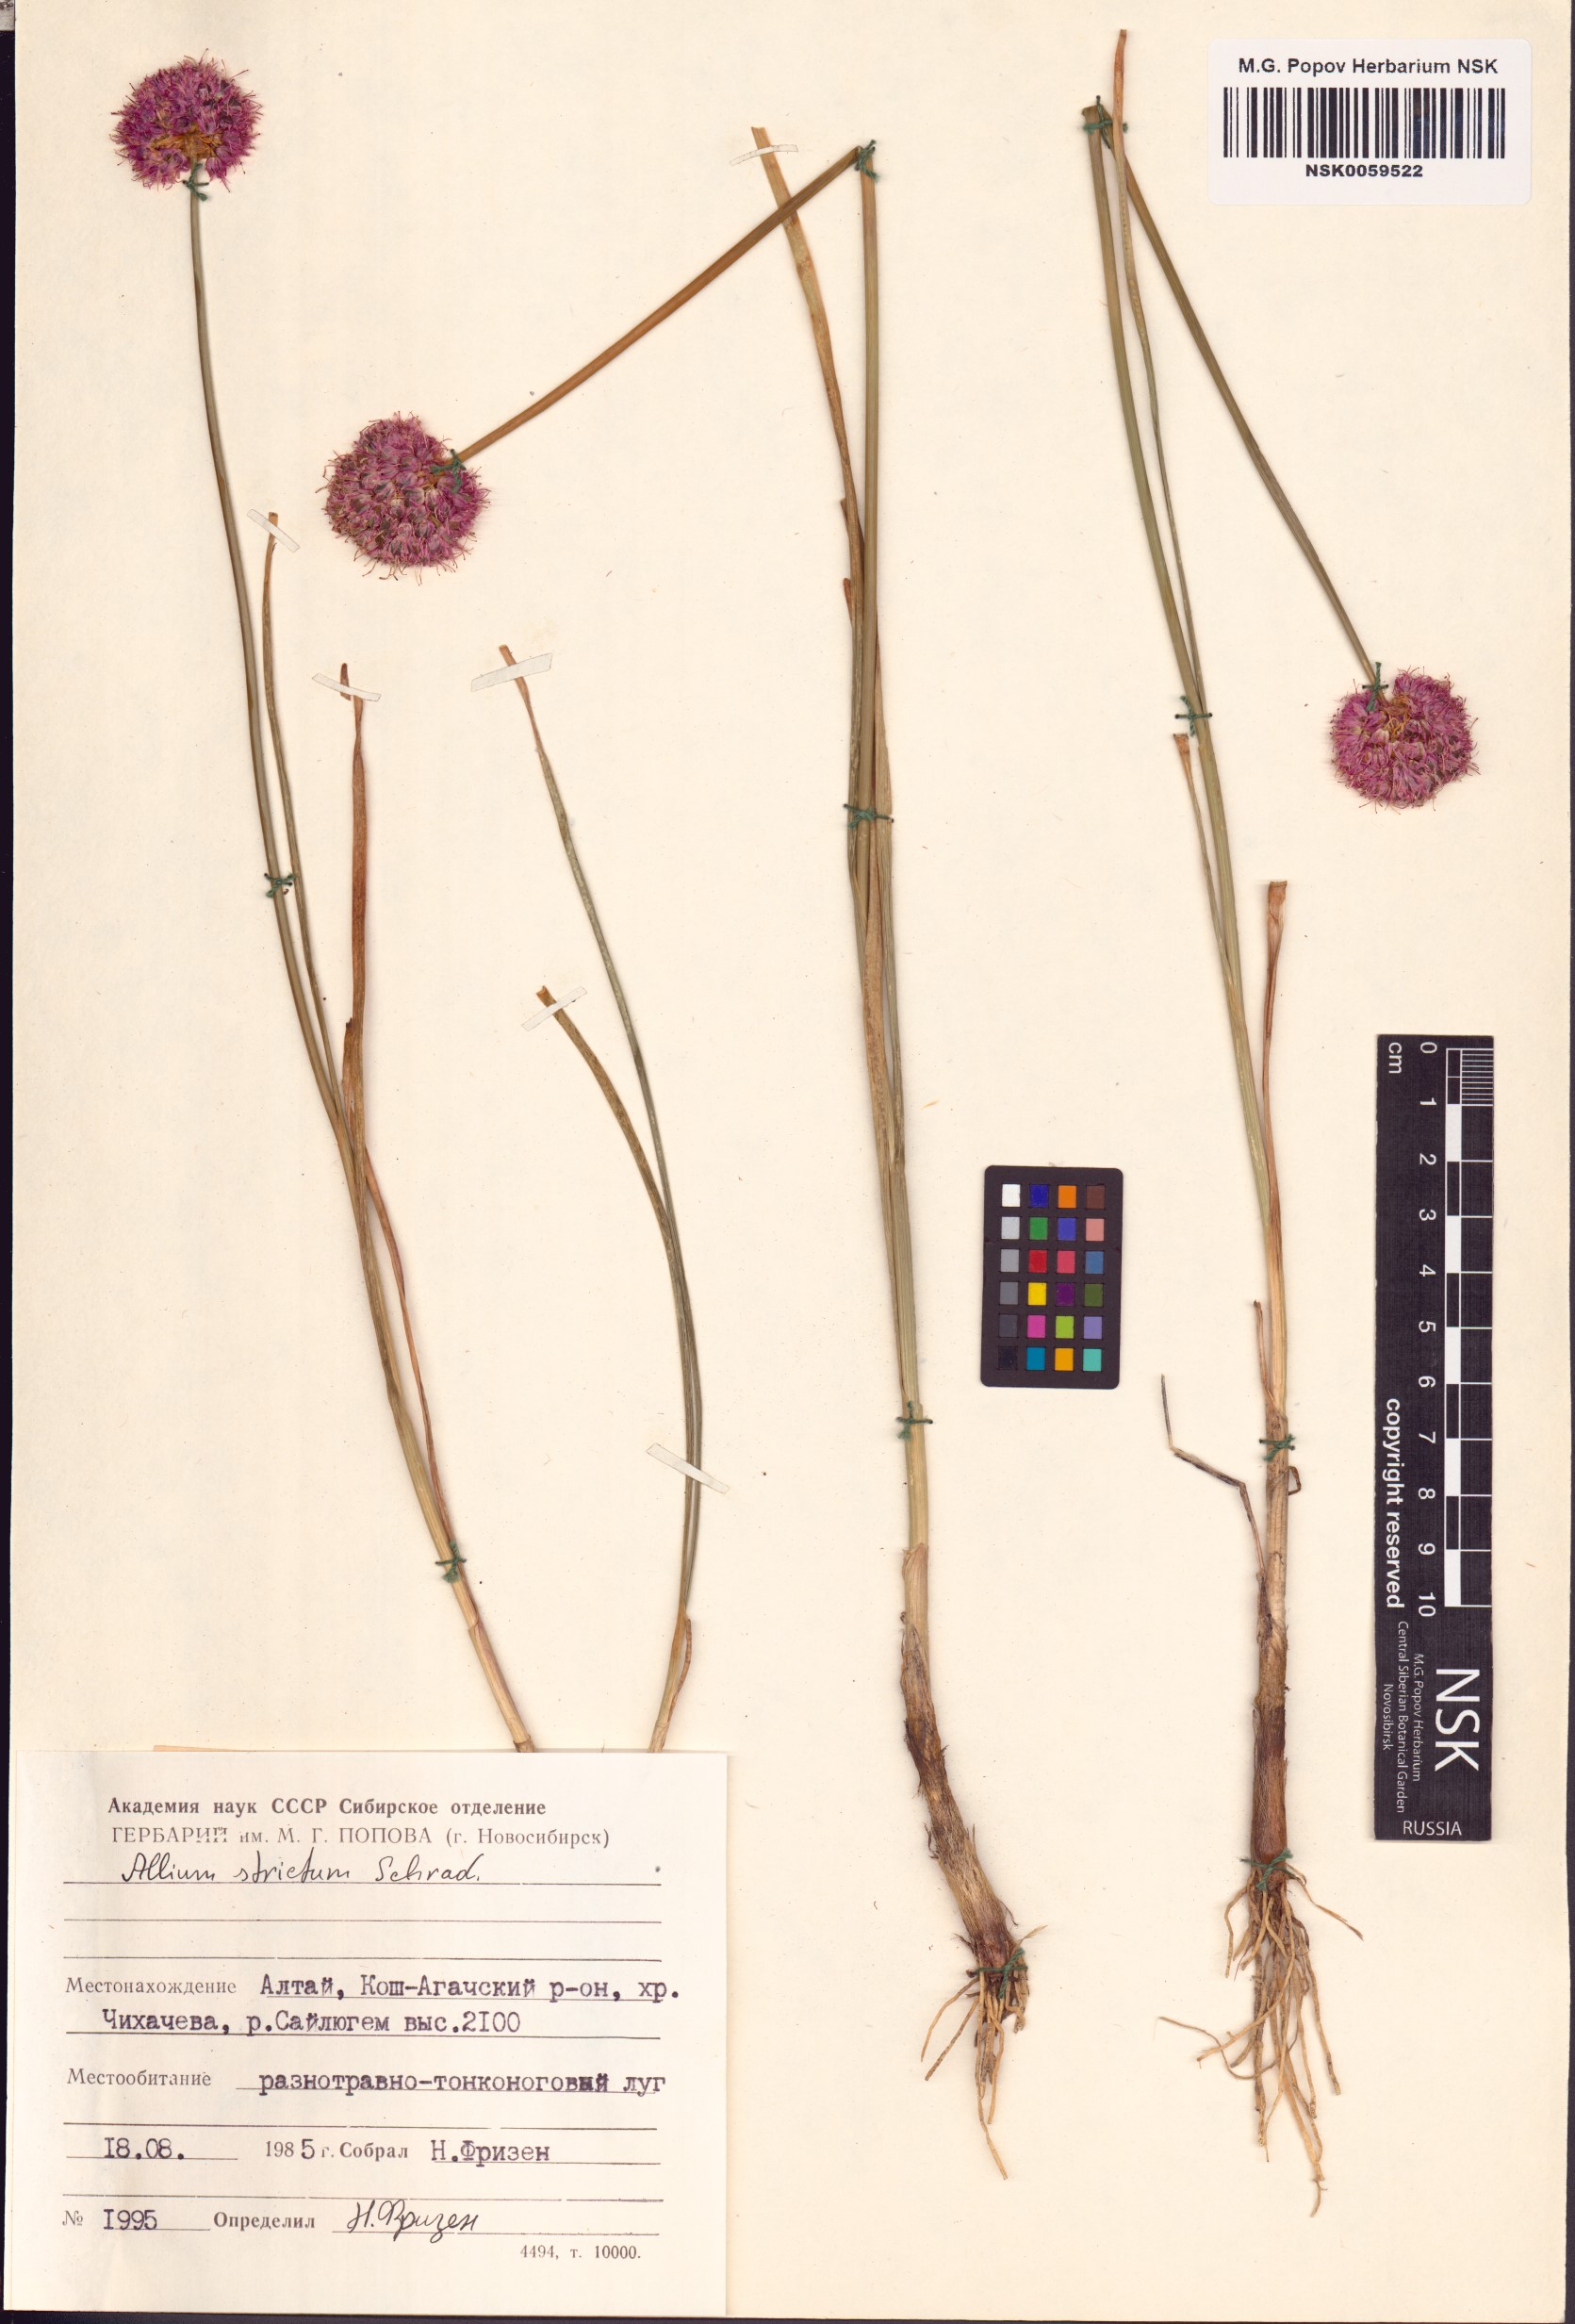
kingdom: Plantae
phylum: Tracheophyta
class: Liliopsida
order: Asparagales
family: Amaryllidaceae
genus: Allium
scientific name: Allium strictum
